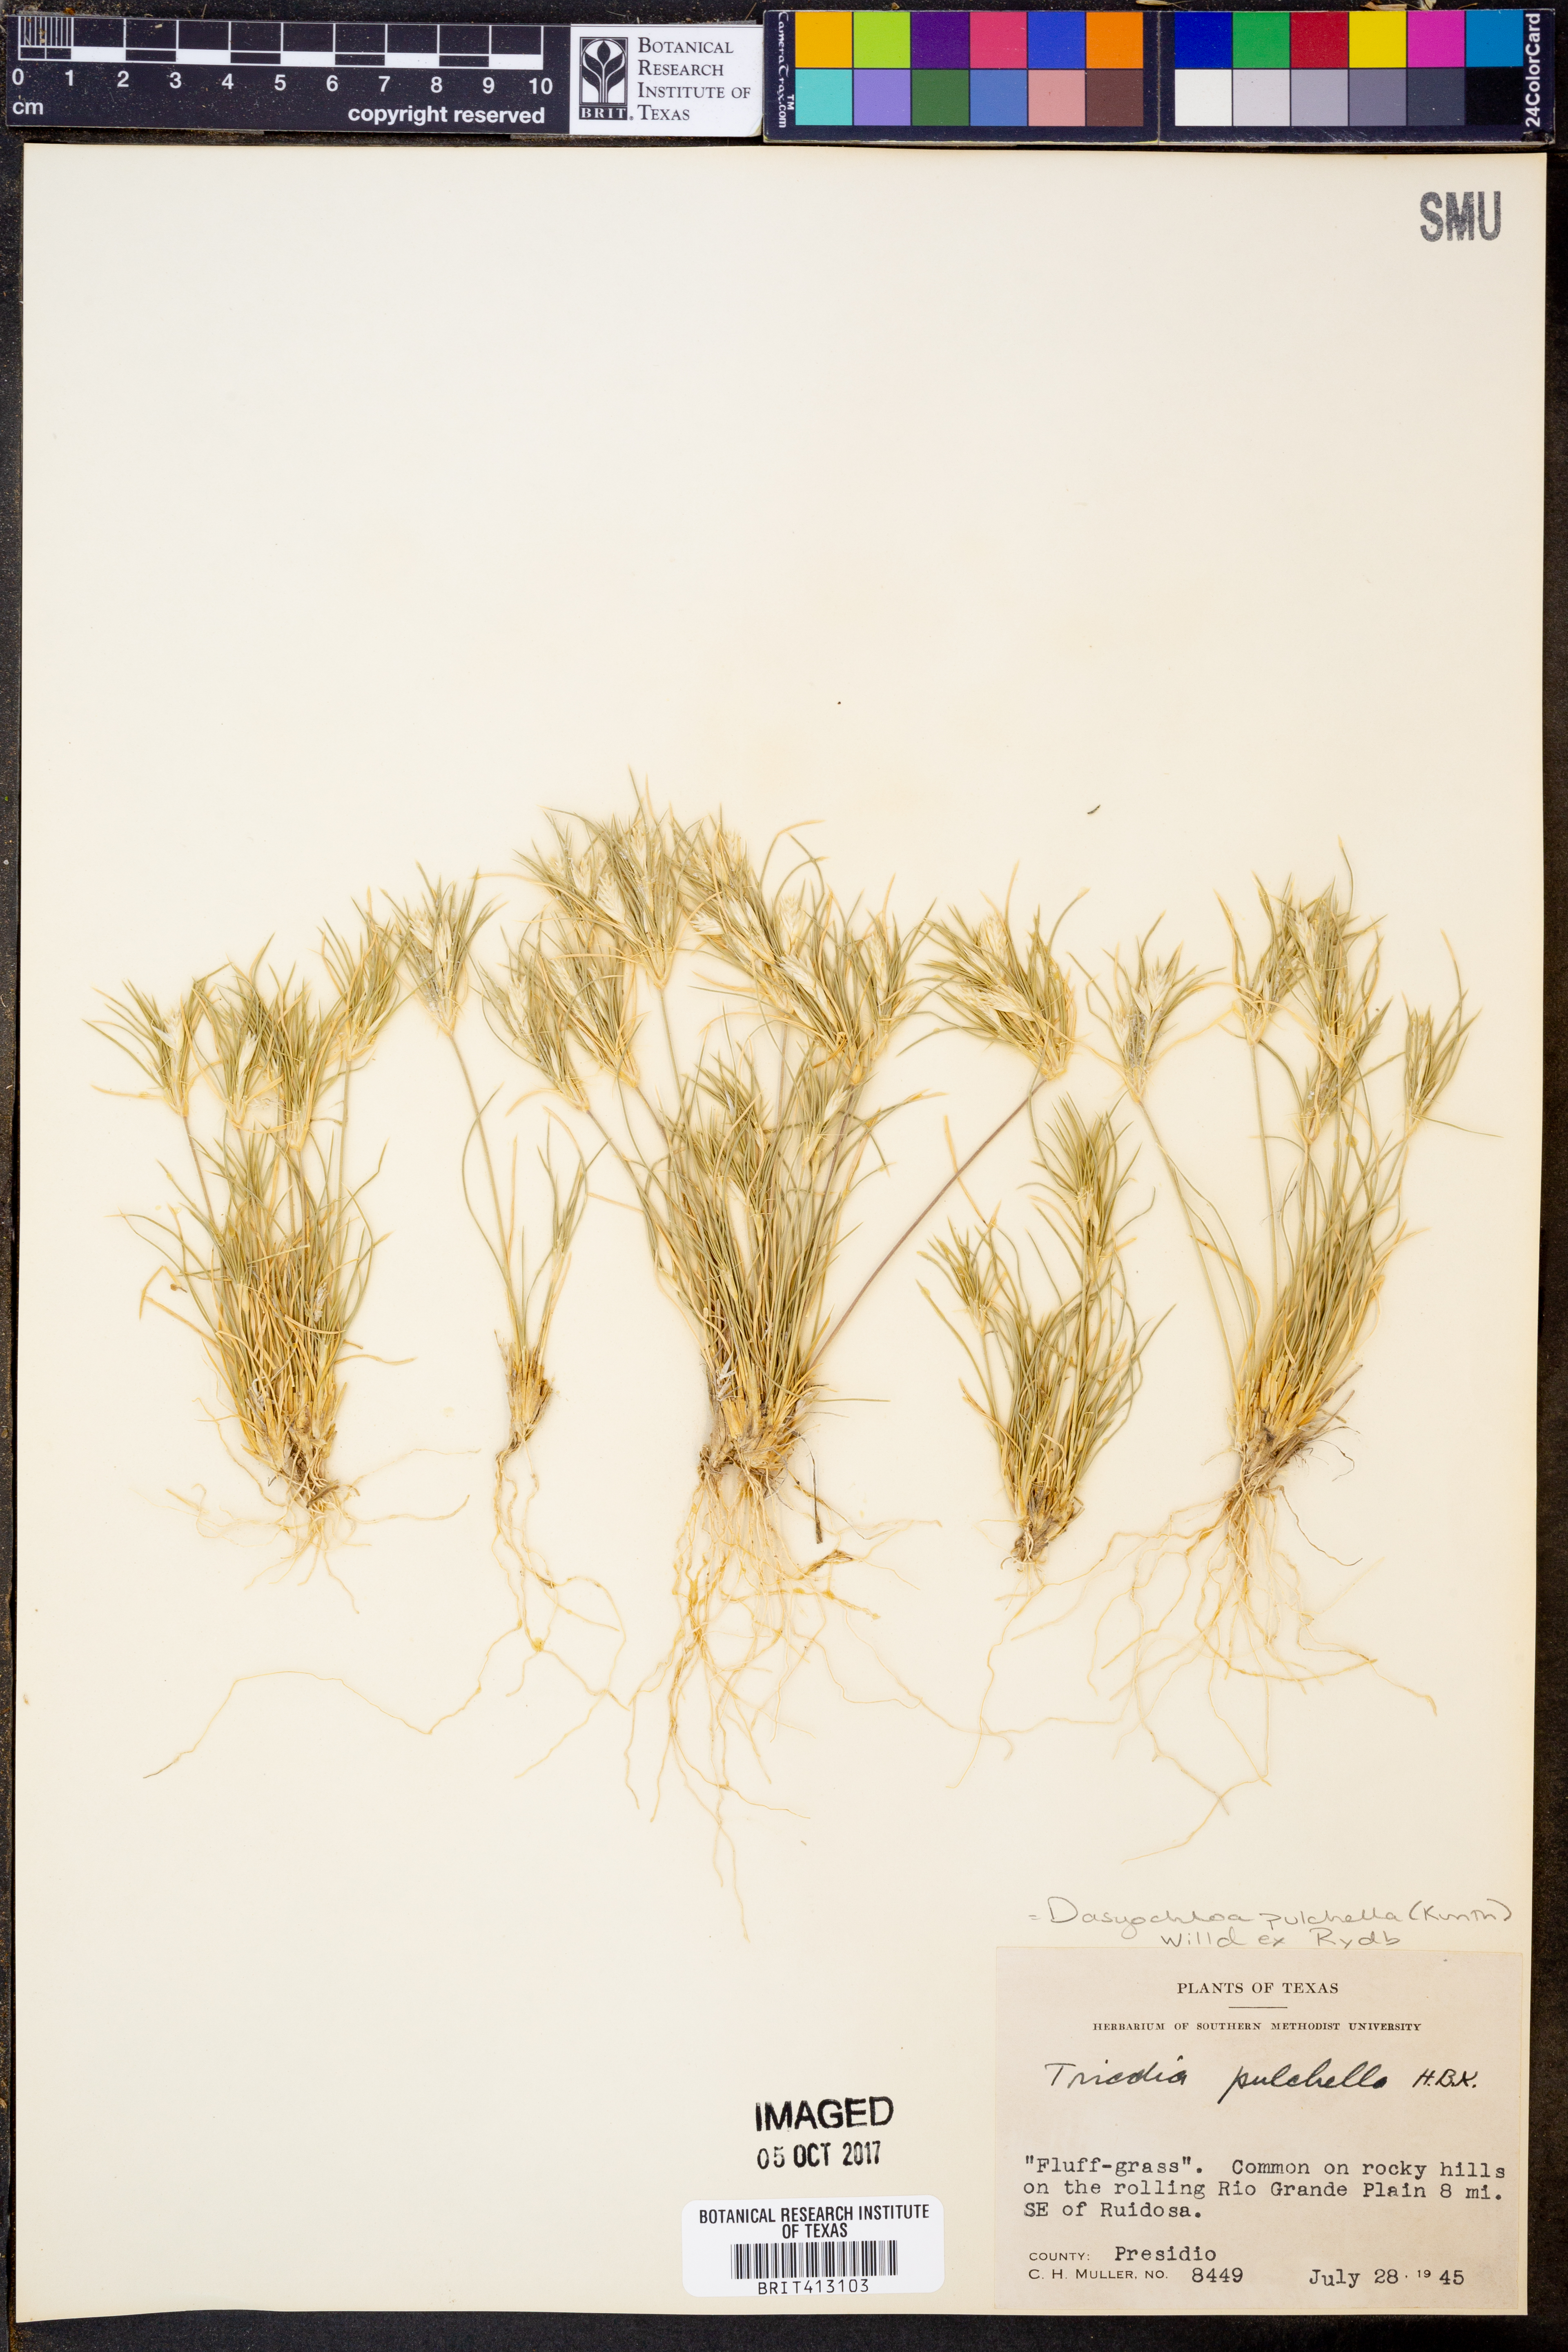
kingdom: Plantae
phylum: Tracheophyta
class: Liliopsida
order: Poales
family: Poaceae
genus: Munroa
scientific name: Munroa pulchella
